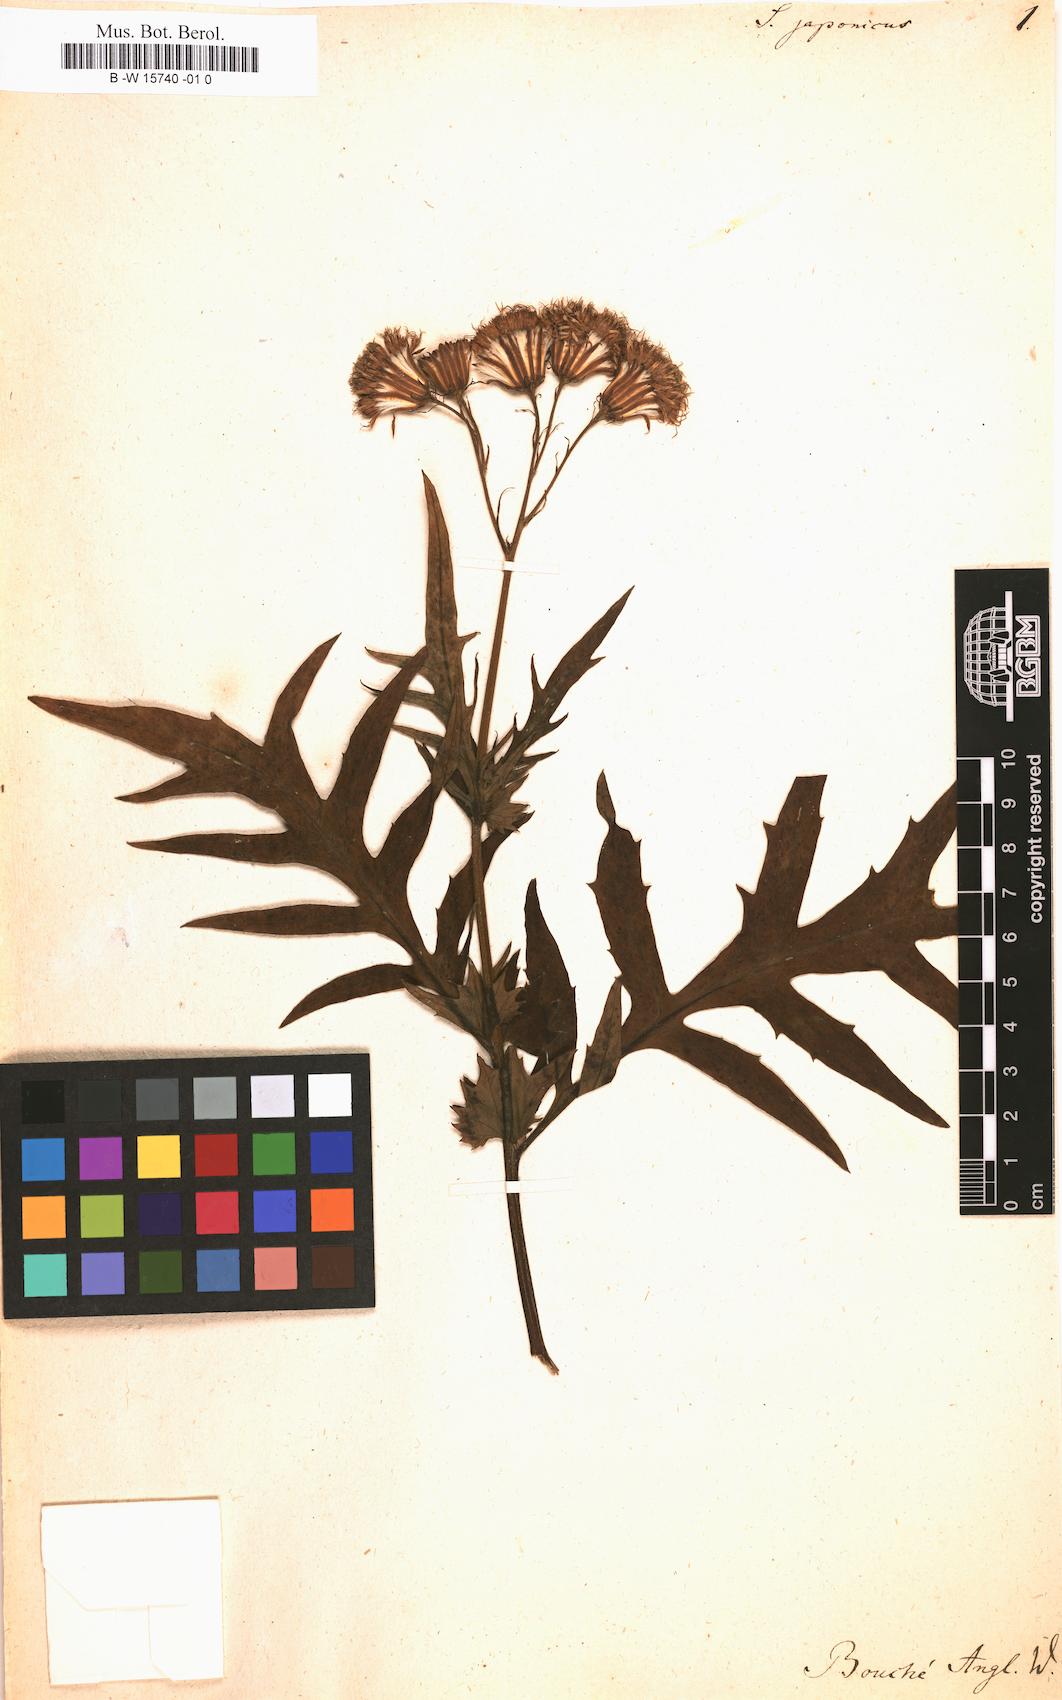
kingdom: Plantae
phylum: Tracheophyta
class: Magnoliopsida
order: Asterales
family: Asteraceae
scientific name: Asteraceae
